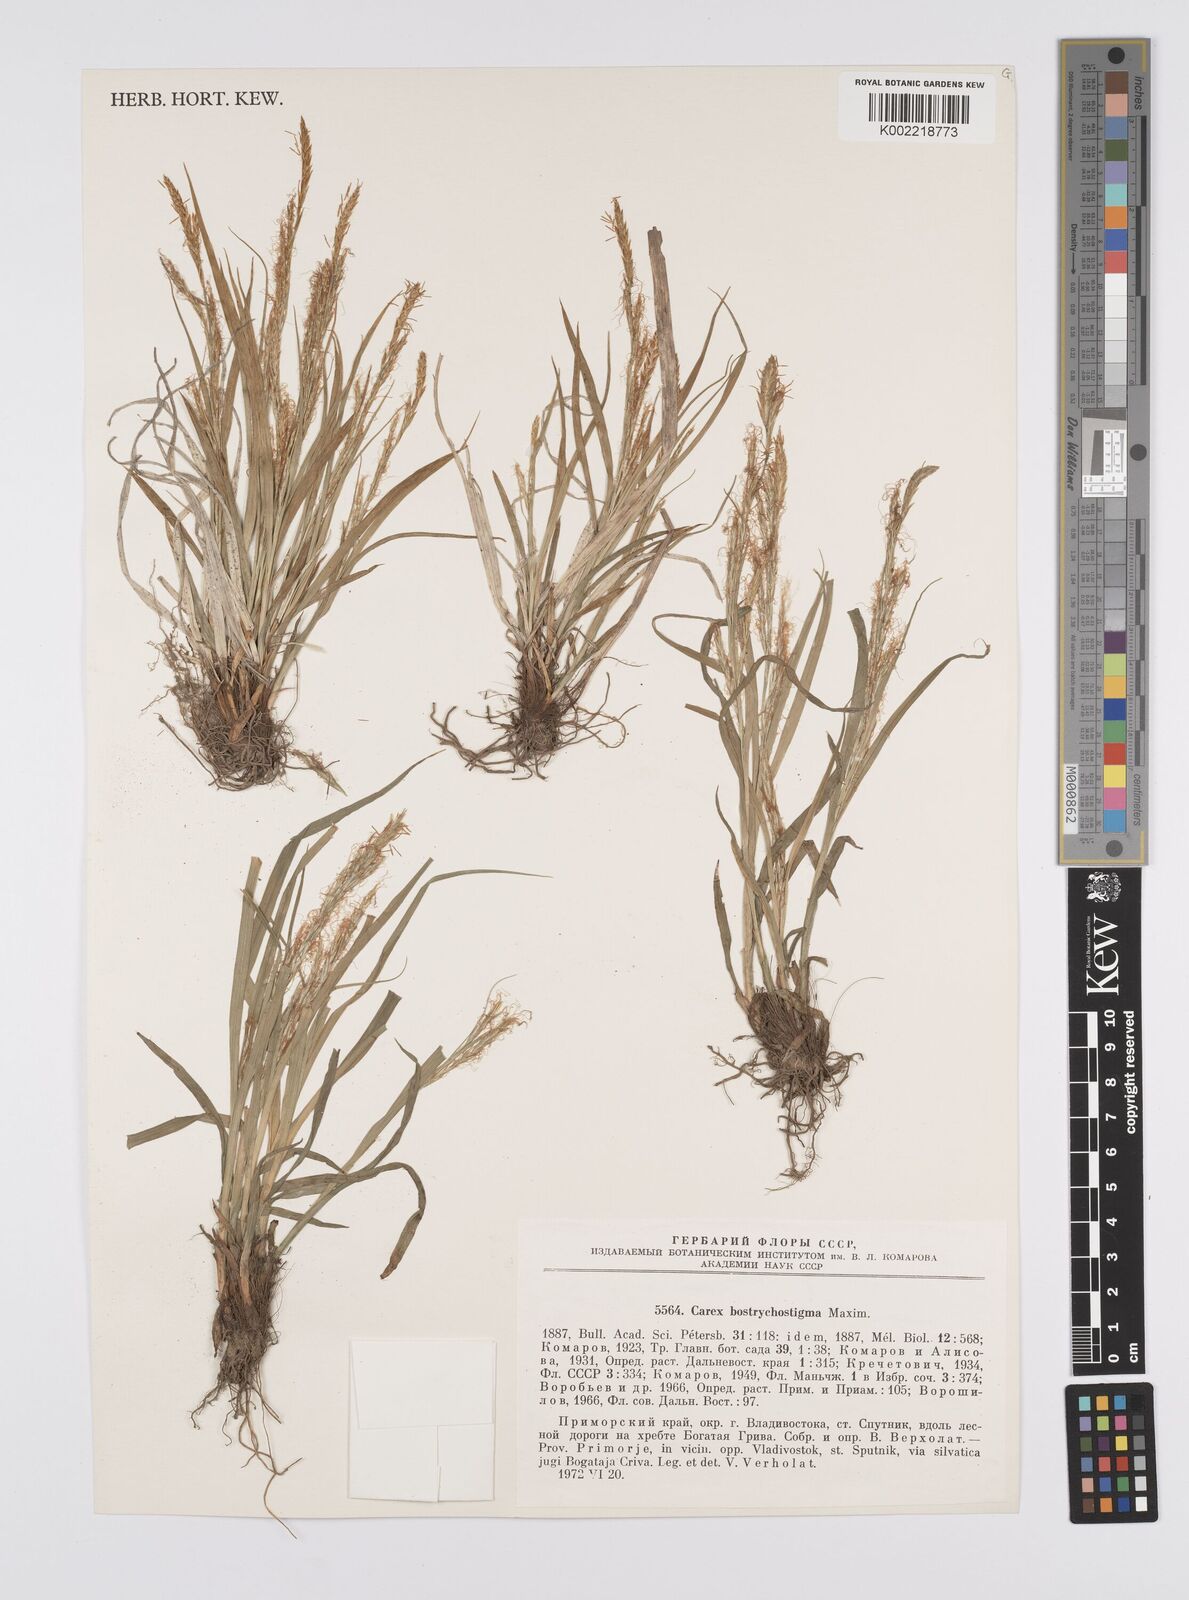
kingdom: Plantae
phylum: Tracheophyta
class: Liliopsida
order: Poales
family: Cyperaceae
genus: Carex
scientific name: Carex bostrychostigma
